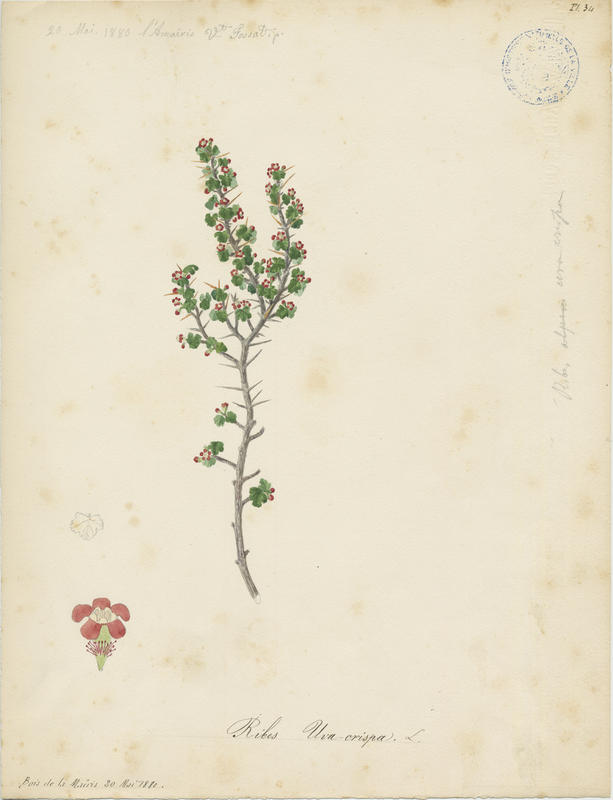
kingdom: Plantae
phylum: Tracheophyta
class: Magnoliopsida
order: Saxifragales
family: Grossulariaceae
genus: Ribes
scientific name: Ribes uva-crispa
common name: Gooseberry
